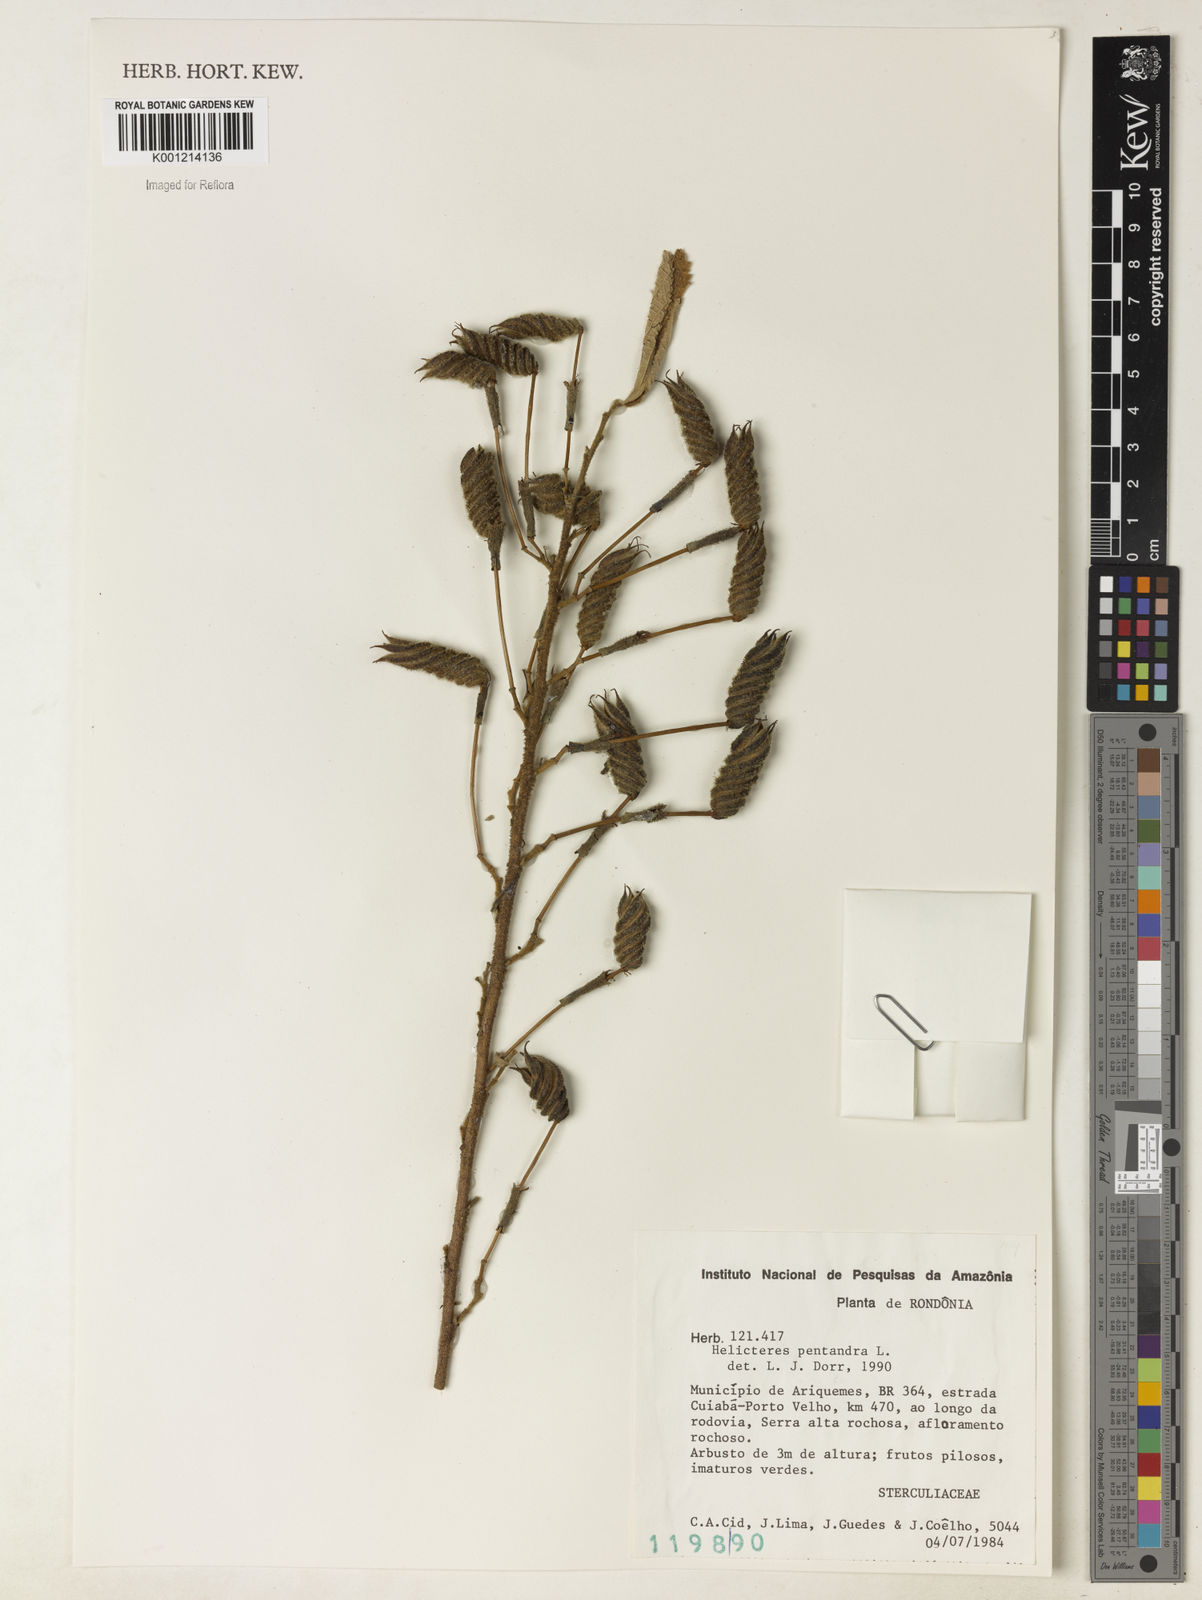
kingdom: Plantae
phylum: Tracheophyta
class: Magnoliopsida
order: Malvales
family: Malvaceae
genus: Helicteres
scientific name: Helicteres pentandra
